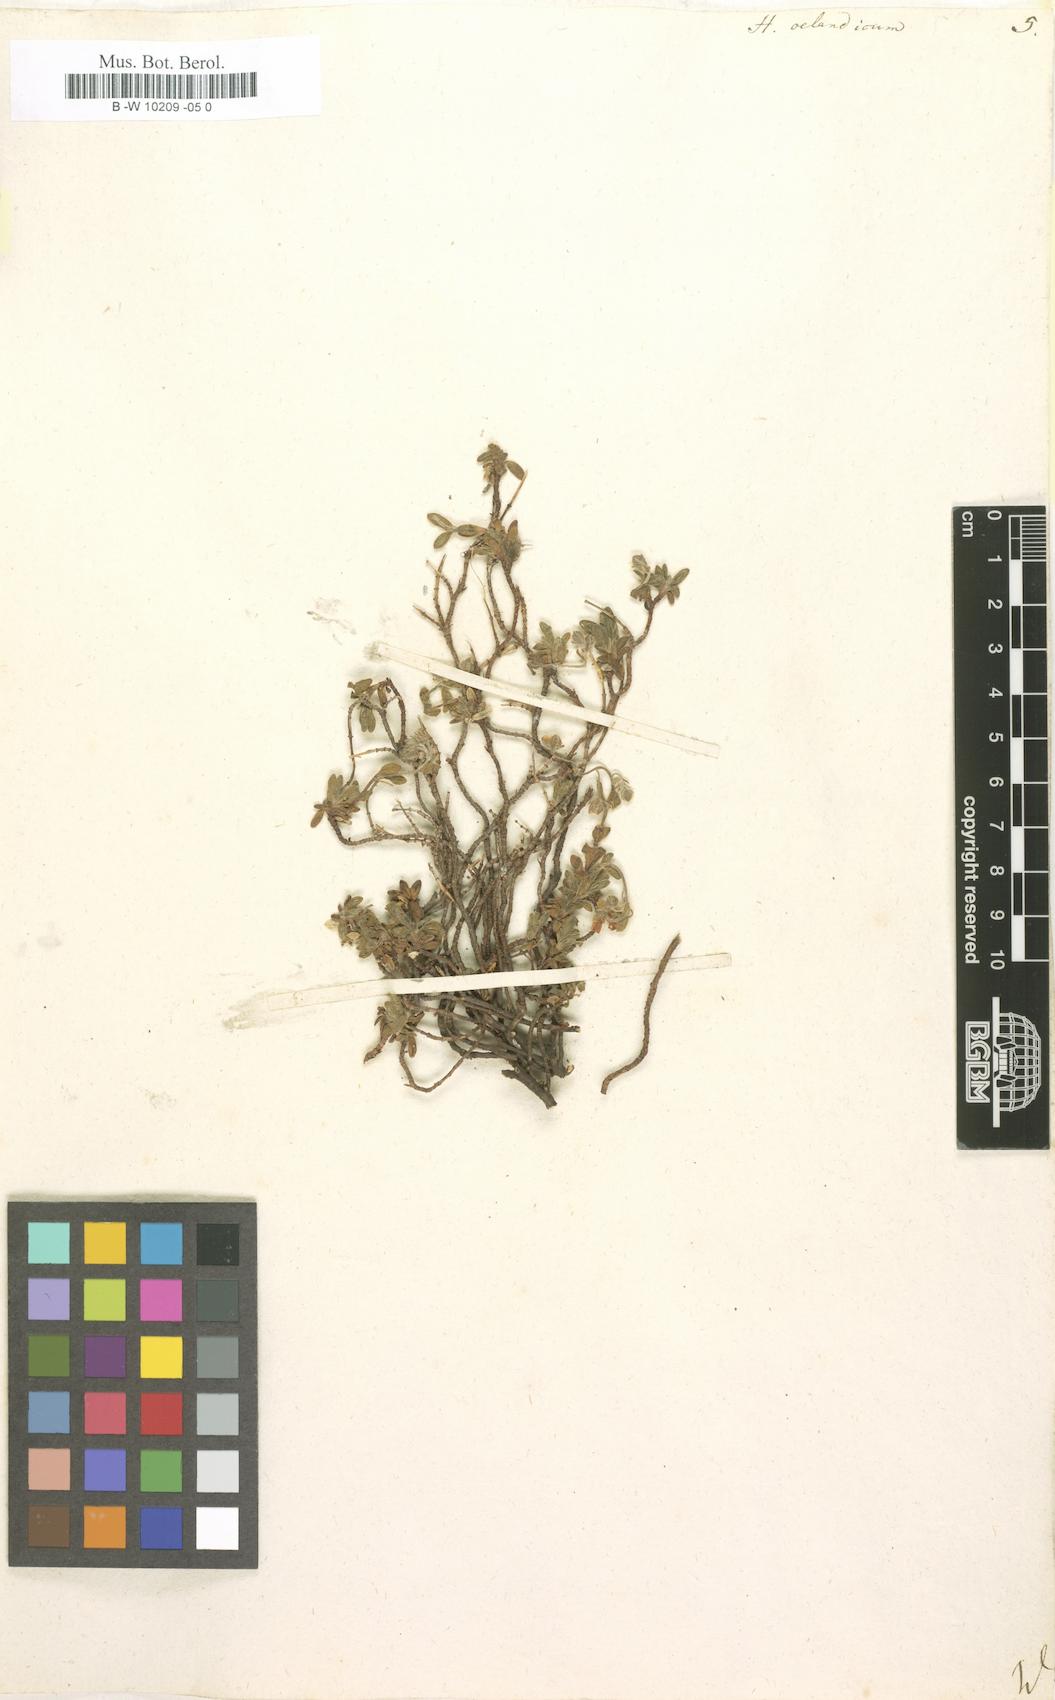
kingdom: Plantae
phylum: Tracheophyta
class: Magnoliopsida
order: Malvales
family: Cistaceae
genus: Helianthemum
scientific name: Helianthemum oelandicum
